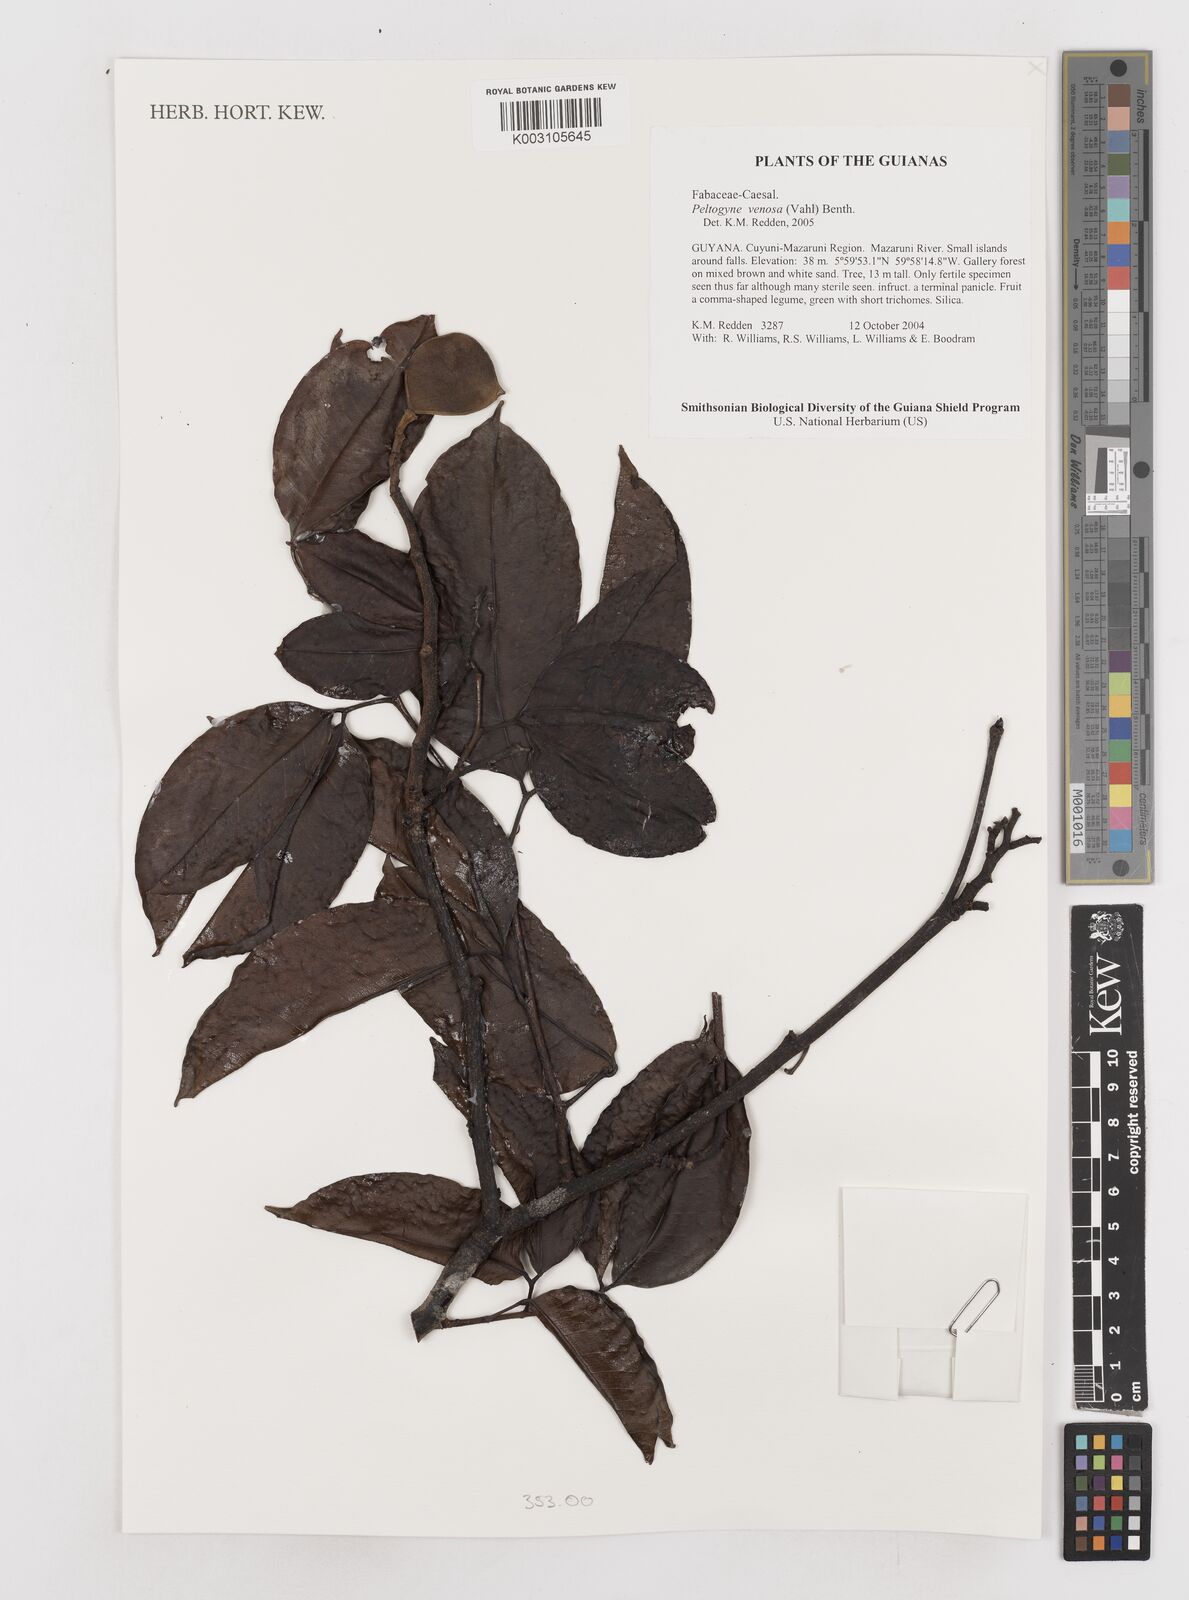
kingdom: Plantae
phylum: Tracheophyta
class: Magnoliopsida
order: Fabales
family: Fabaceae
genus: Peltogyne
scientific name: Peltogyne venosa
